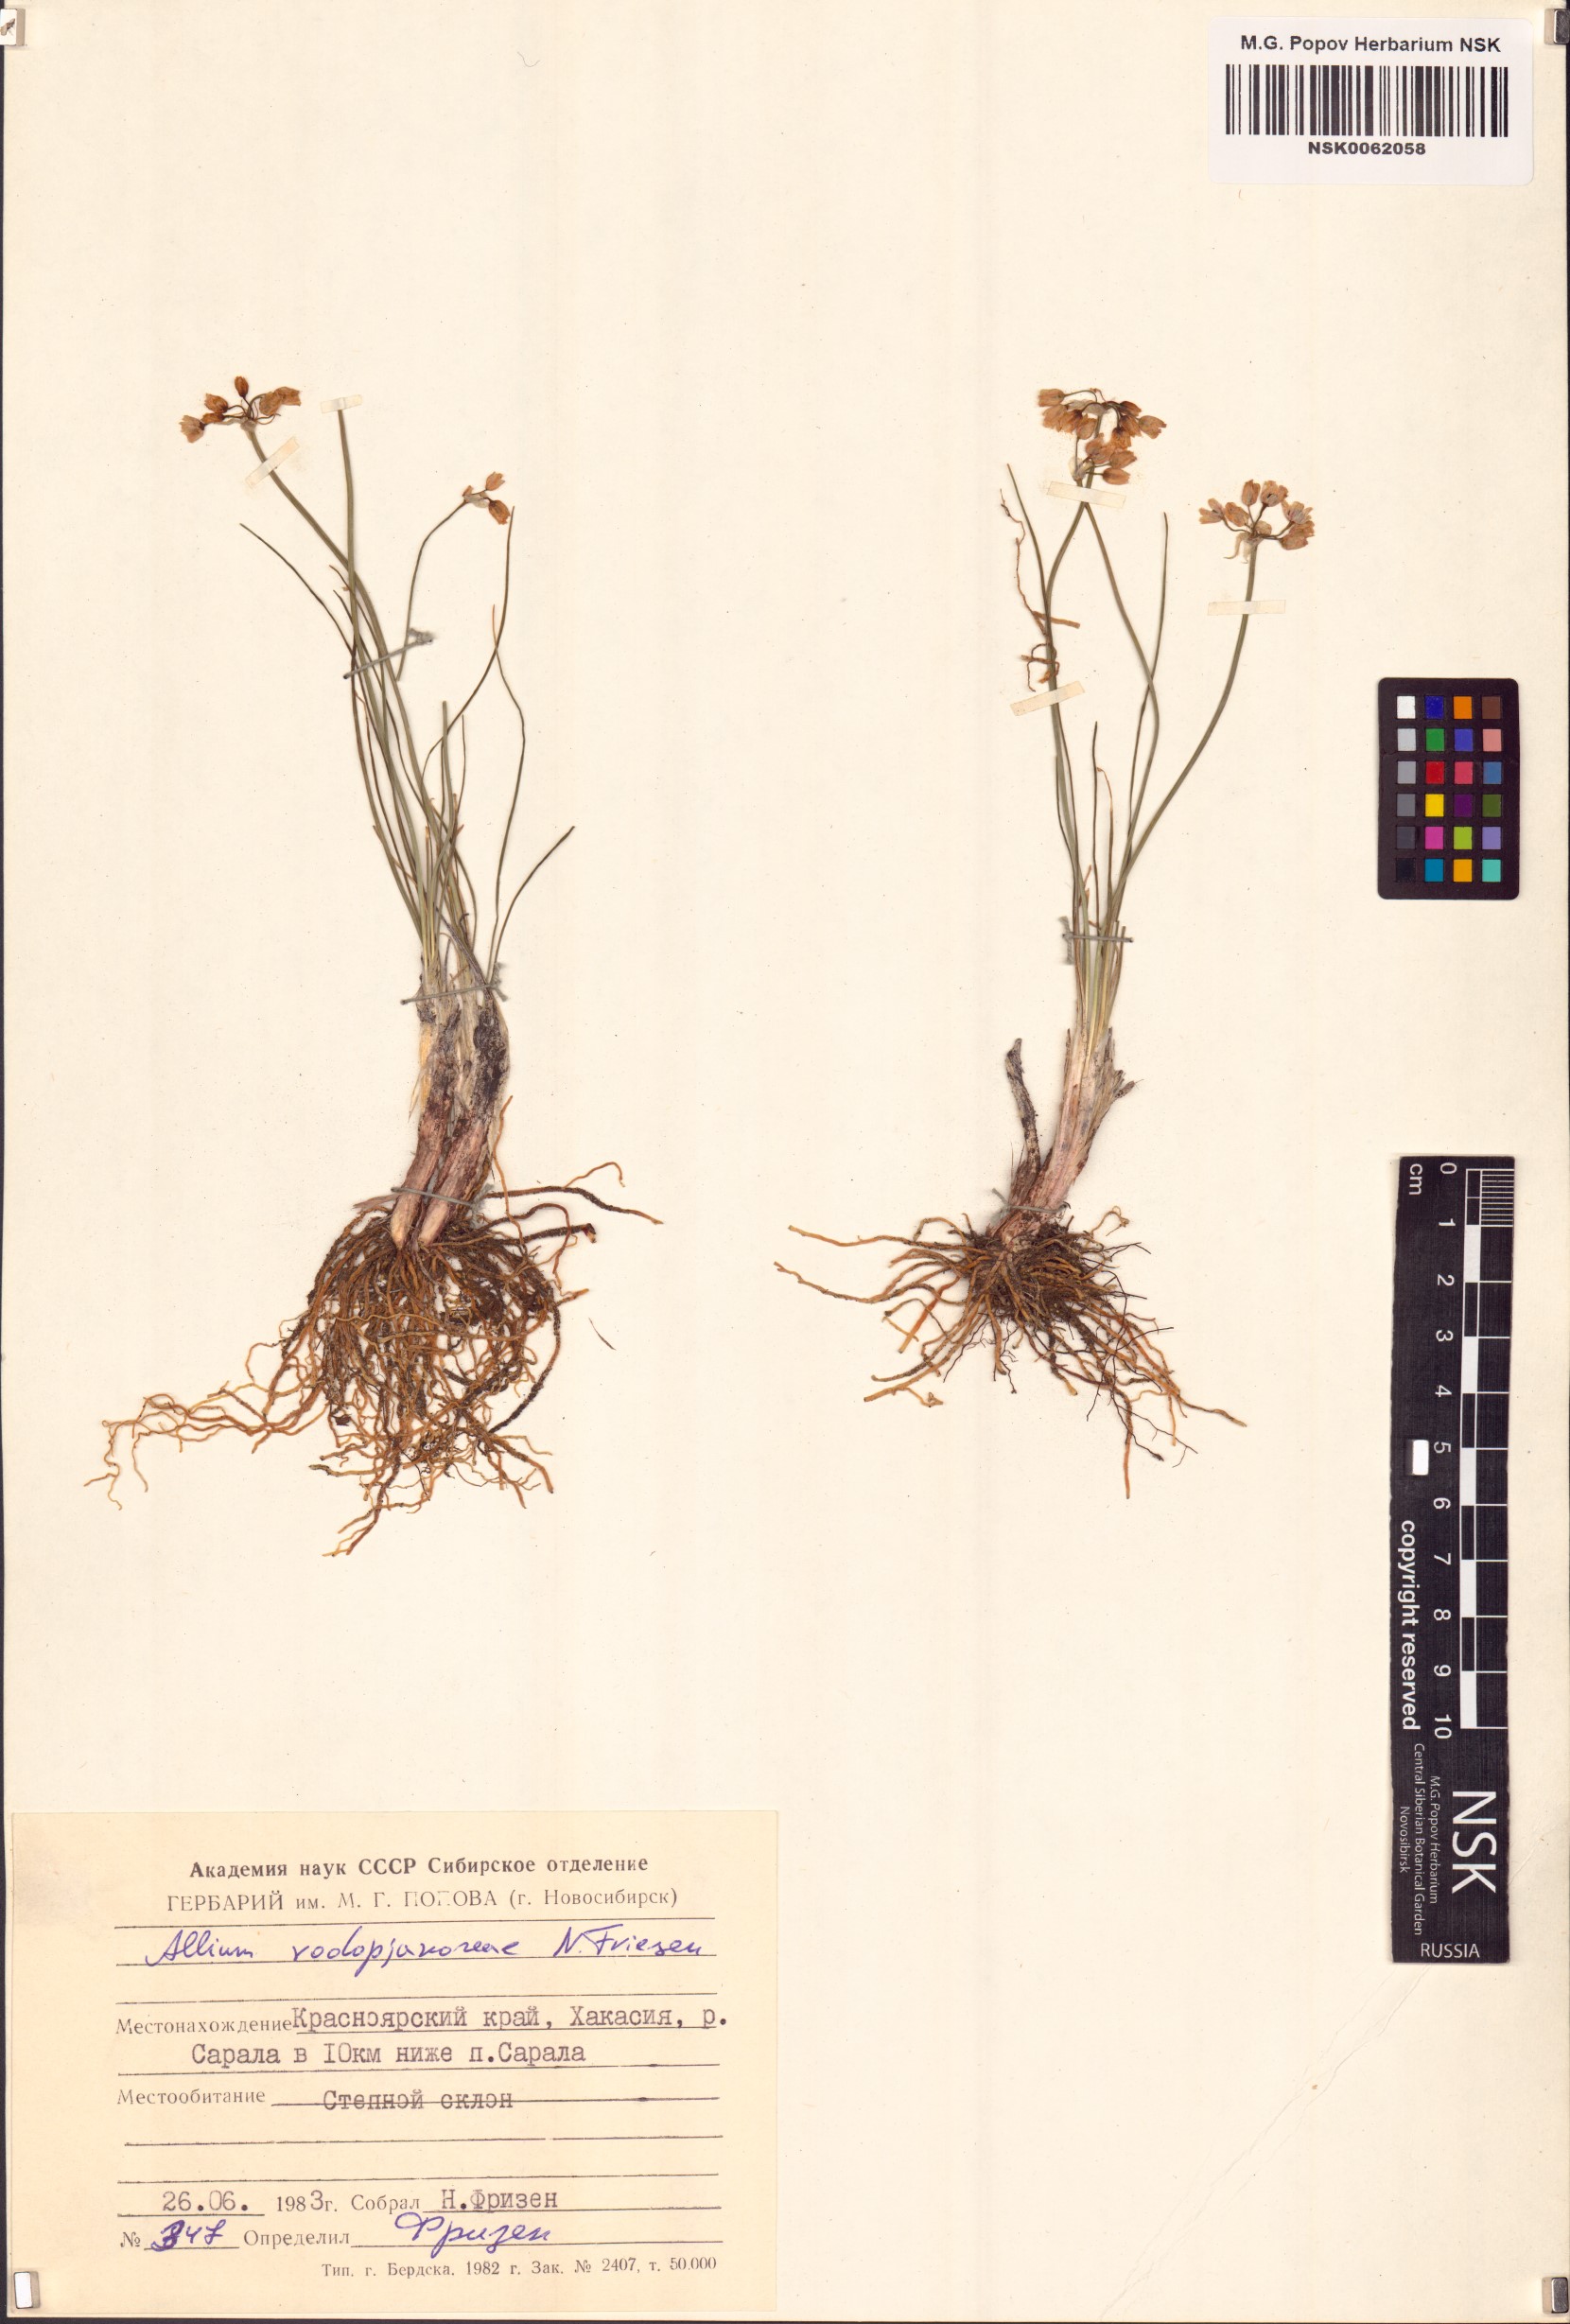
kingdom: Plantae
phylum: Tracheophyta
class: Liliopsida
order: Asparagales
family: Amaryllidaceae
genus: Allium
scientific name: Allium vodopjanovae
